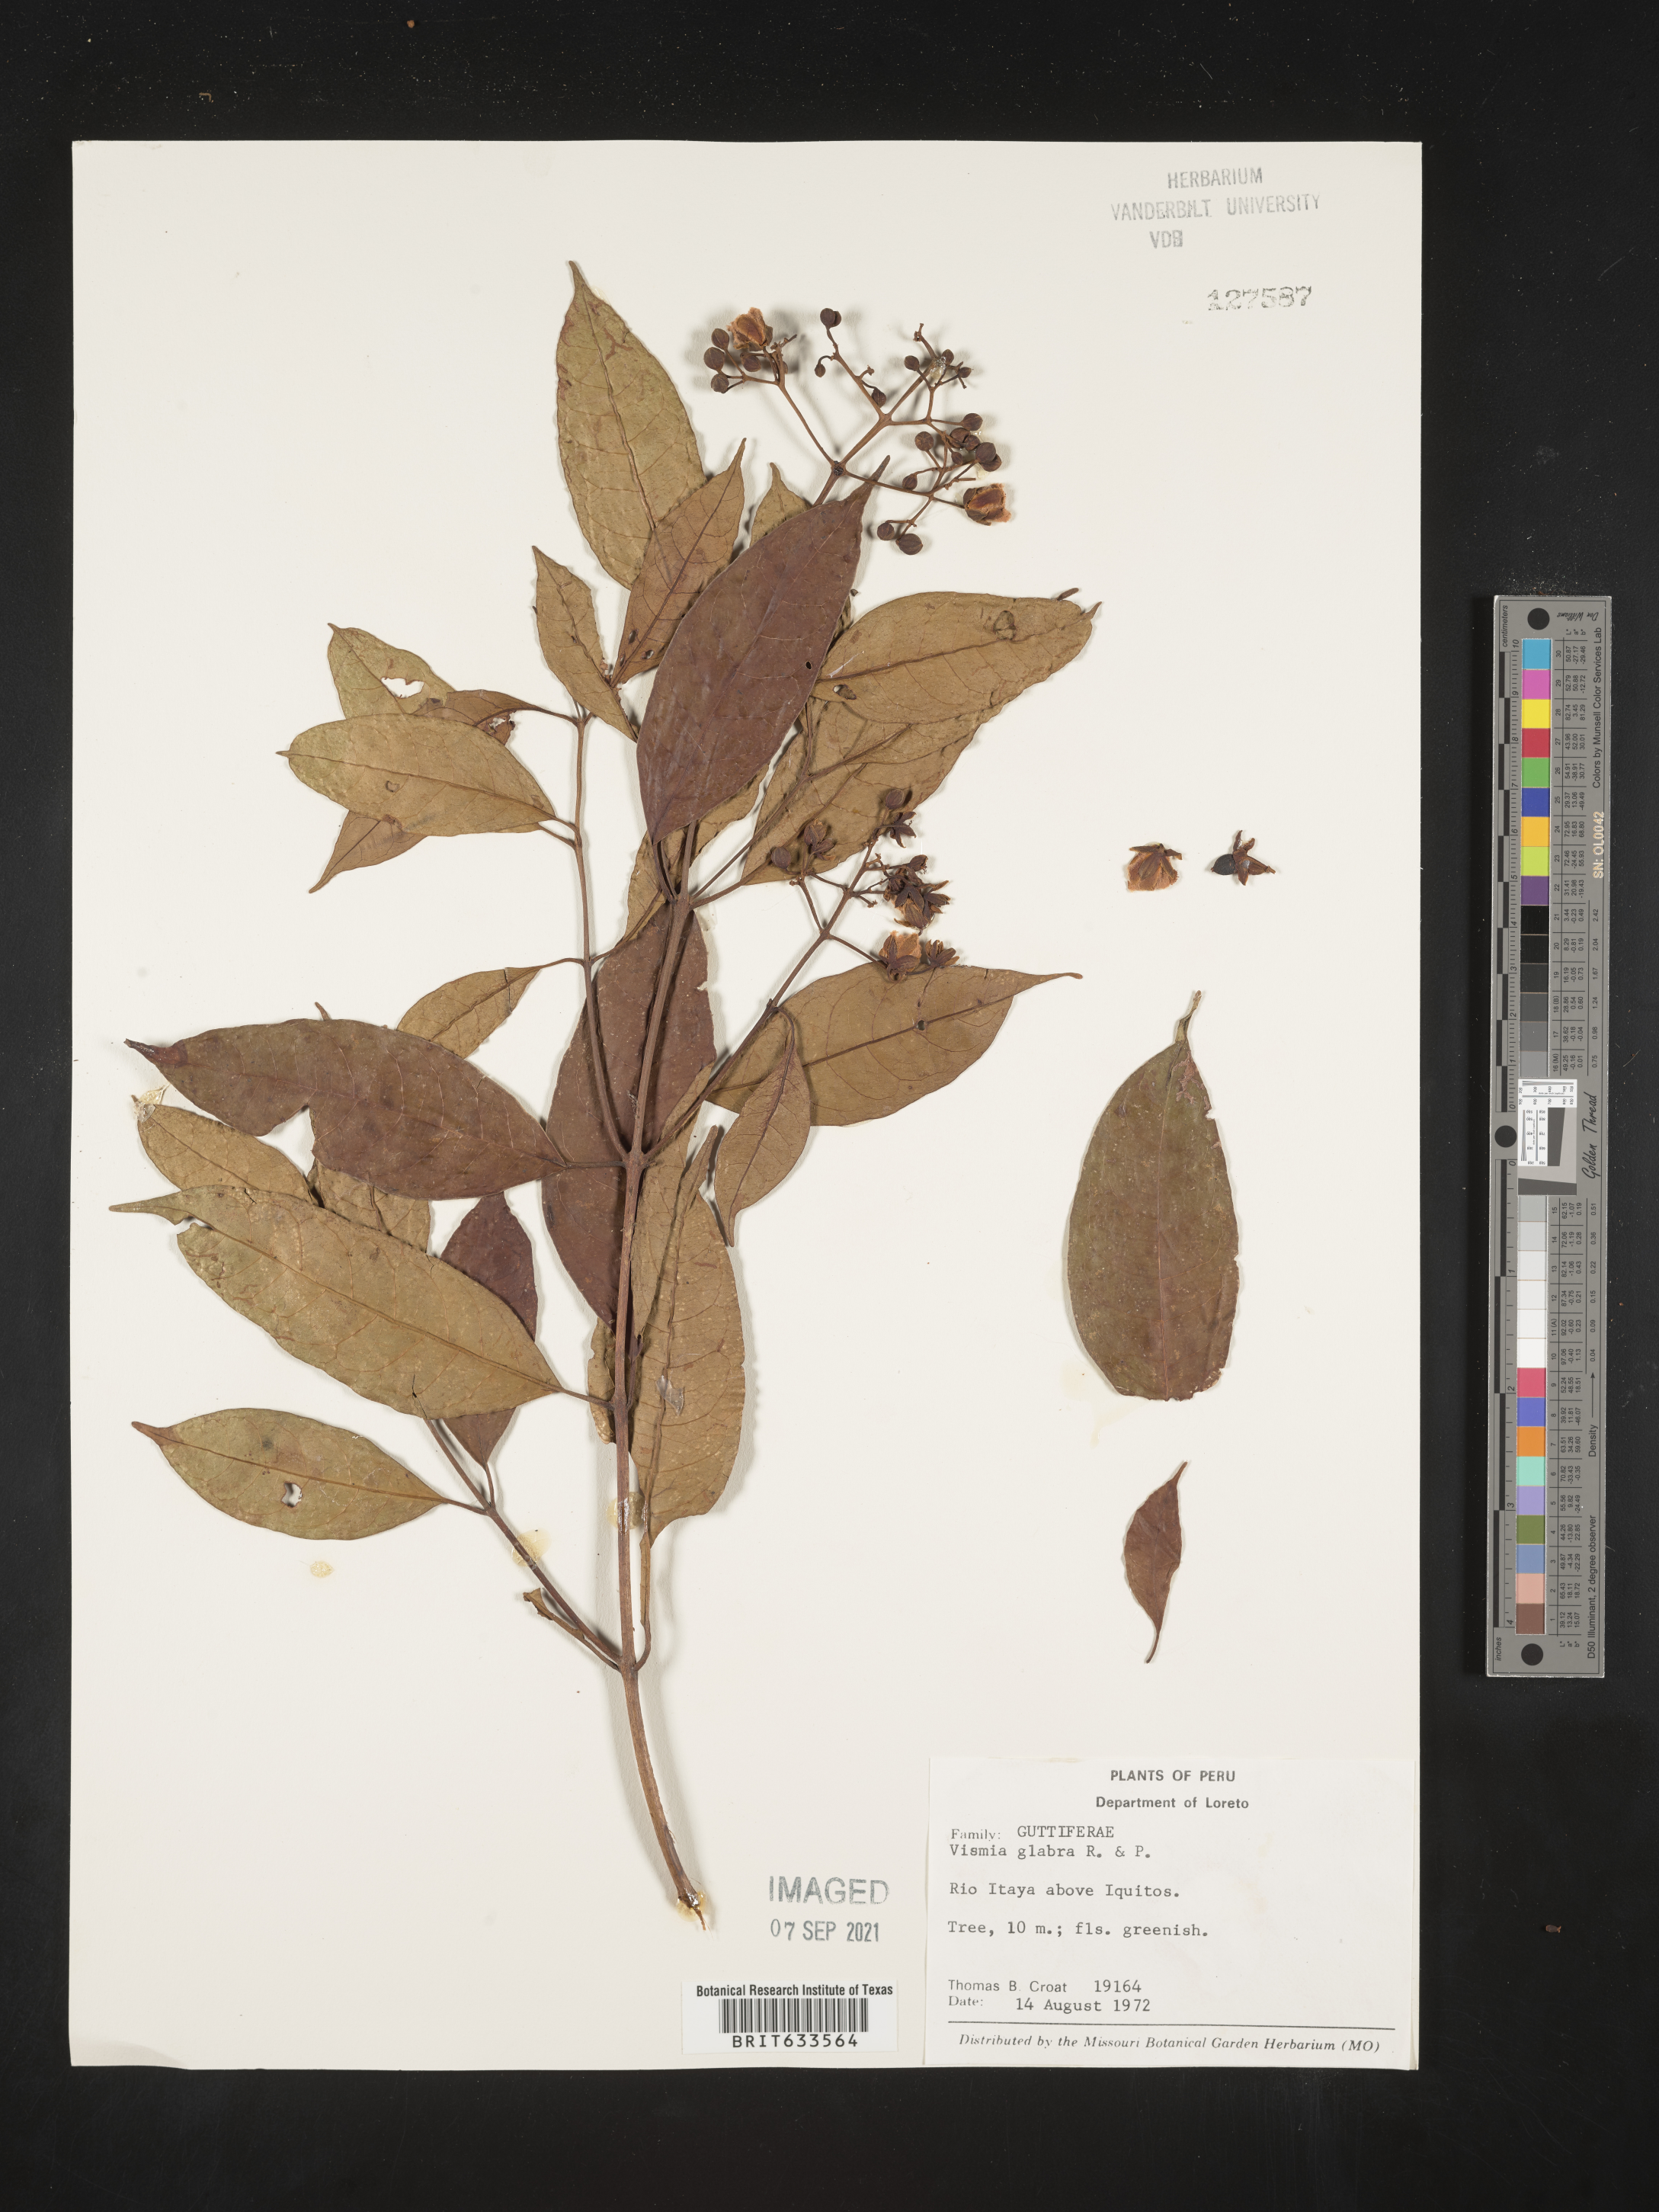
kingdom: Plantae
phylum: Tracheophyta
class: Magnoliopsida
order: Malpighiales
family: Hypericaceae
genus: Vismia
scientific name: Vismia
